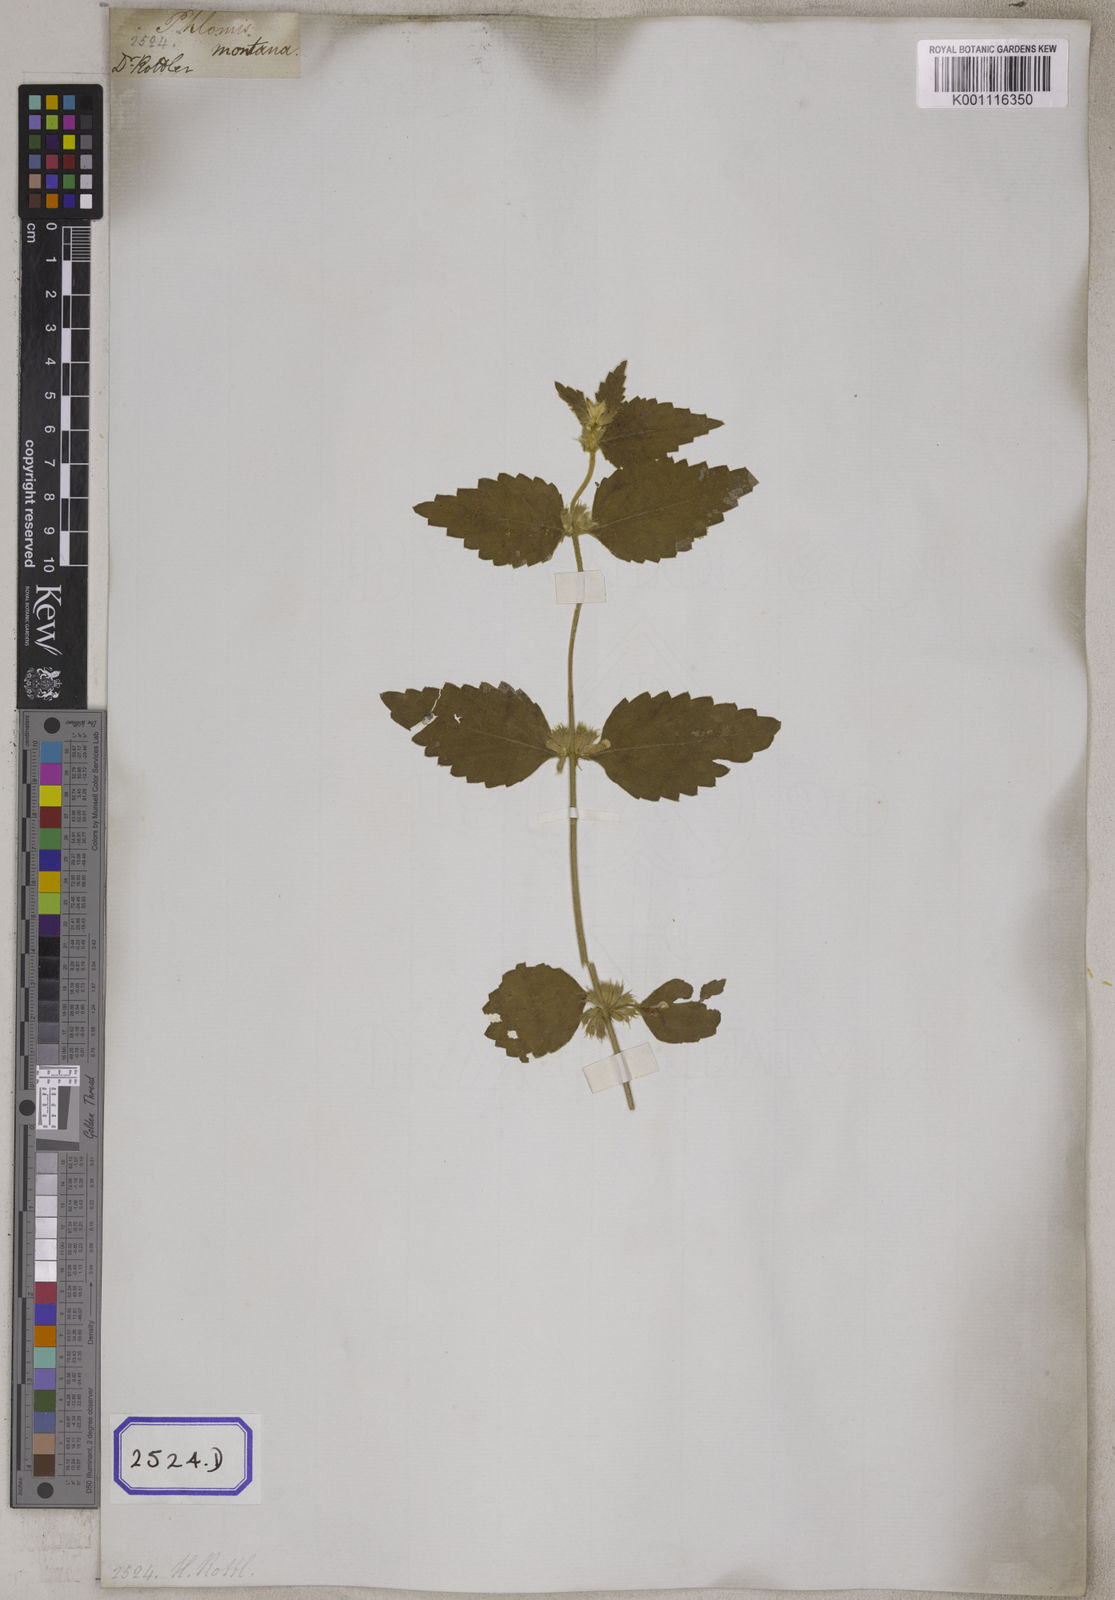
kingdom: Plantae
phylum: Tracheophyta
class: Magnoliopsida
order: Lamiales
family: Lamiaceae
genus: Leucas
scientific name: Leucas marrubioides
